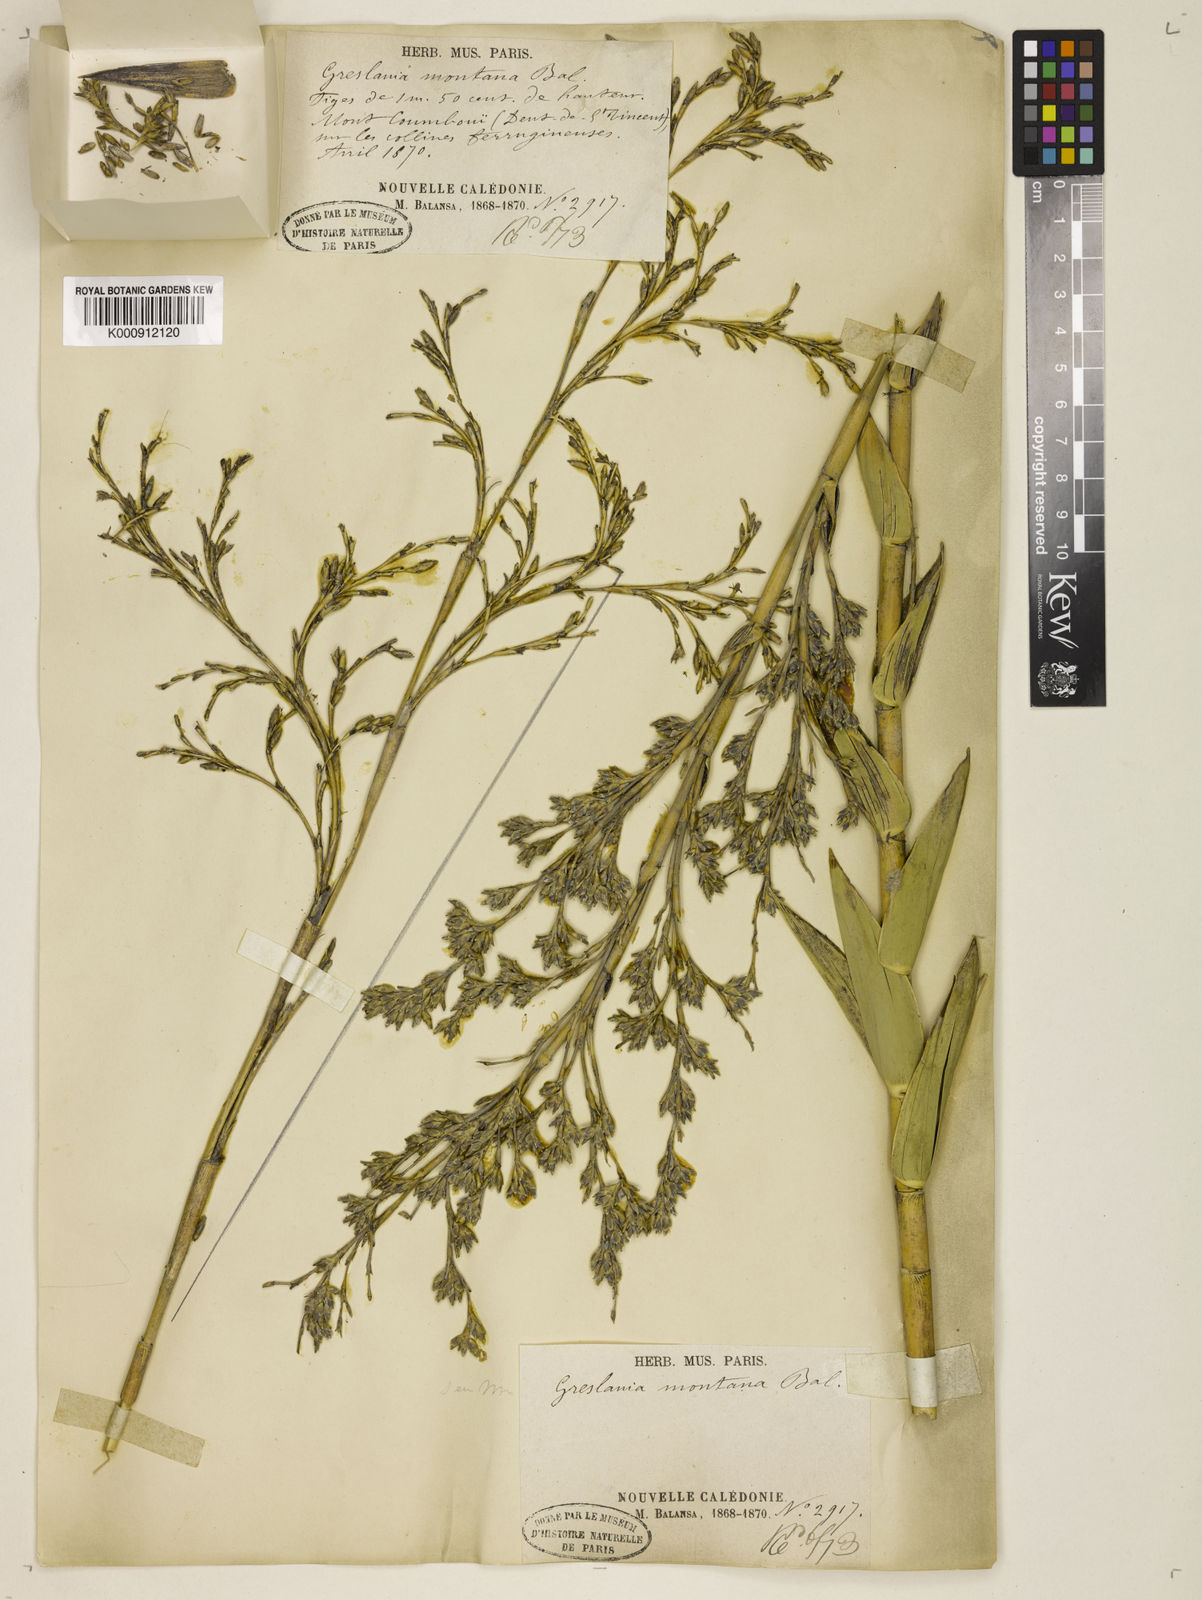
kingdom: Plantae
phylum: Tracheophyta
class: Liliopsida
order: Poales
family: Poaceae
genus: Greslania
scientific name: Greslania rivularis
